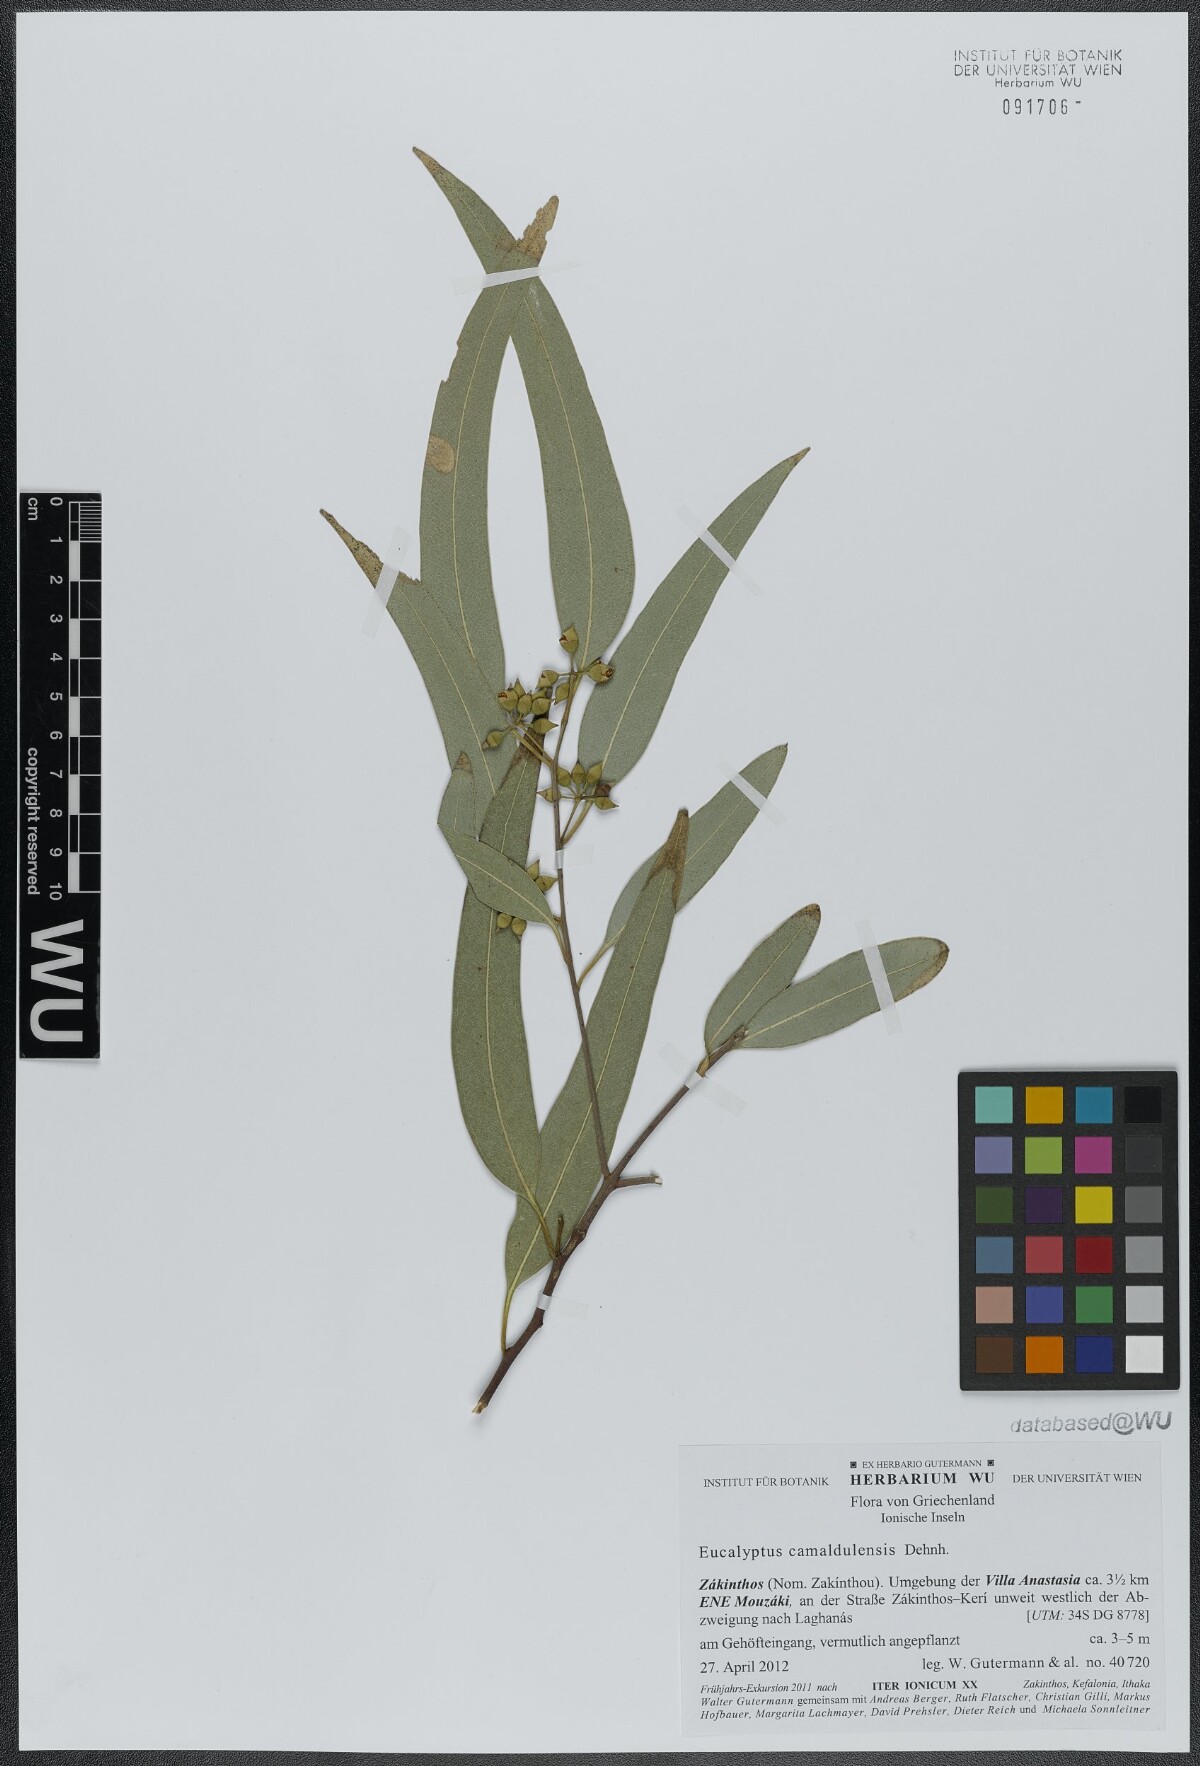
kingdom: Plantae
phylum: Tracheophyta
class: Magnoliopsida
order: Myrtales
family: Myrtaceae
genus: Eucalyptus
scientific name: Eucalyptus camaldulensis
